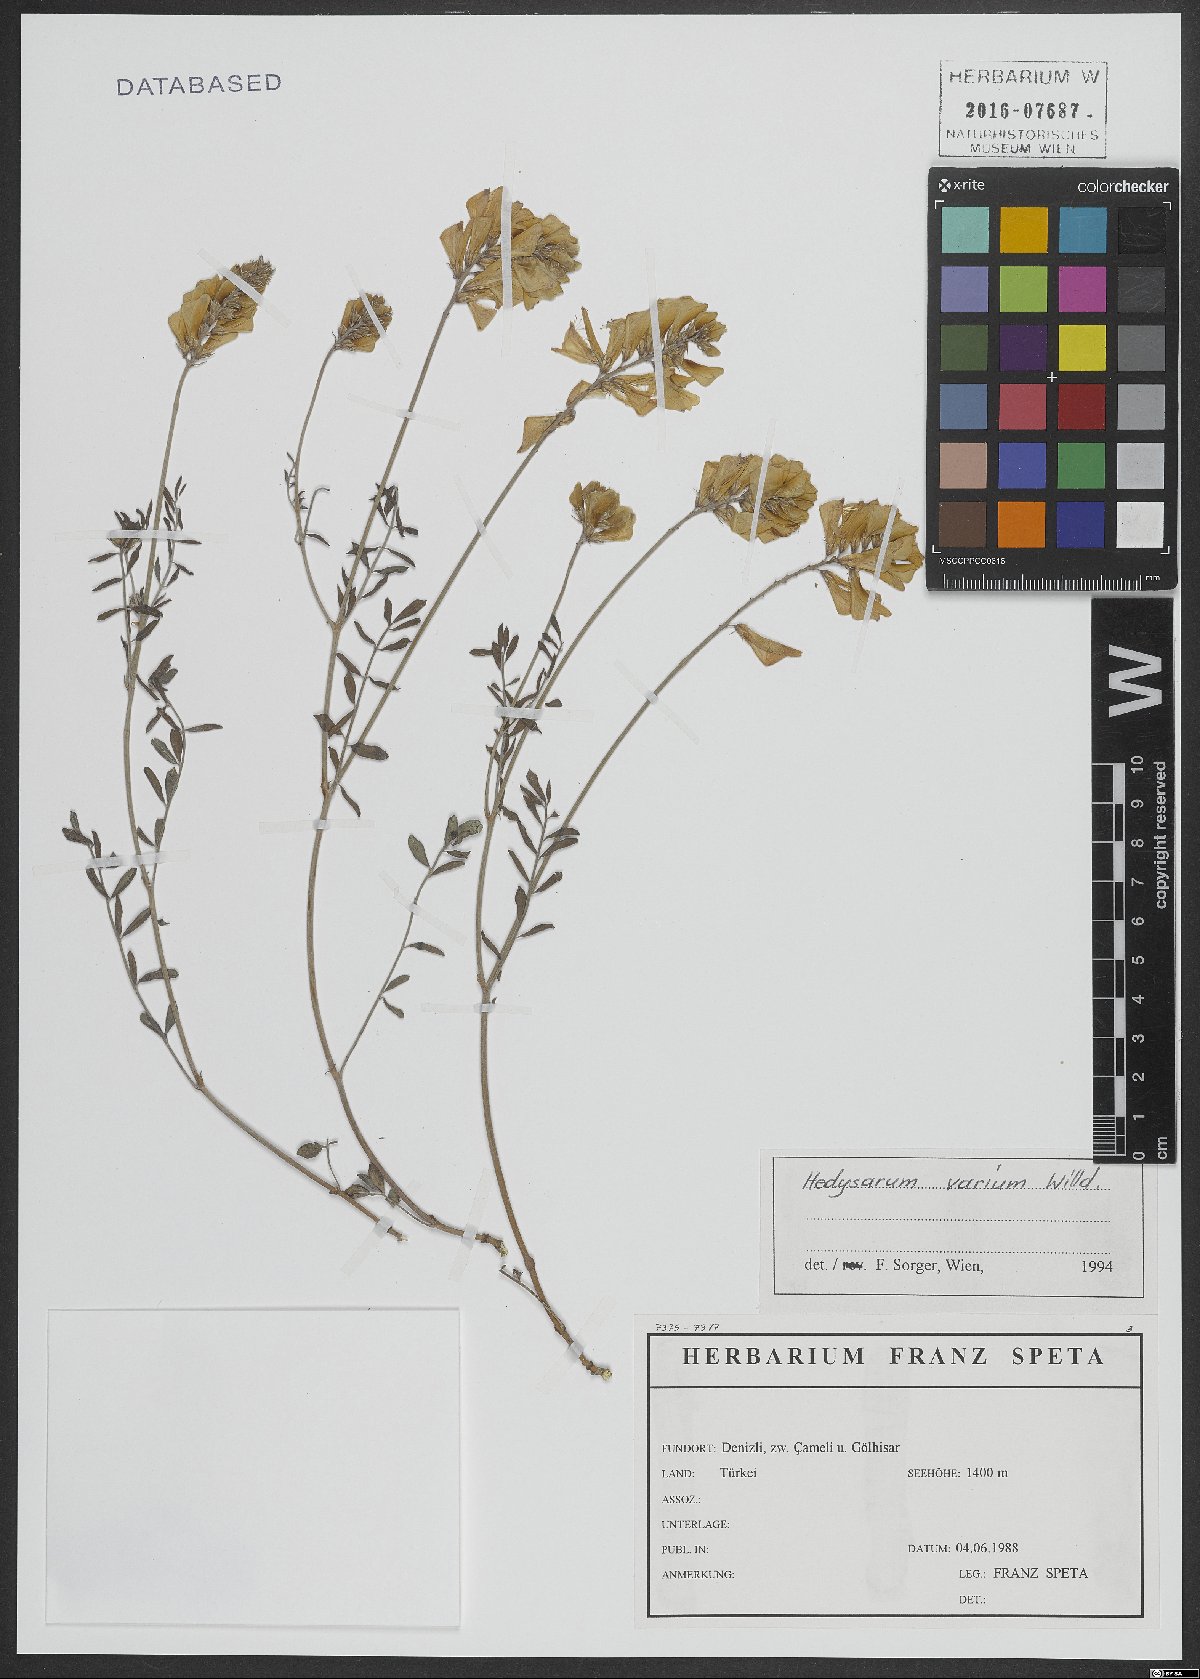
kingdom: Plantae
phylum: Tracheophyta
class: Magnoliopsida
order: Fabales
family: Fabaceae
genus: Hedysarum
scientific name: Hedysarum varium
